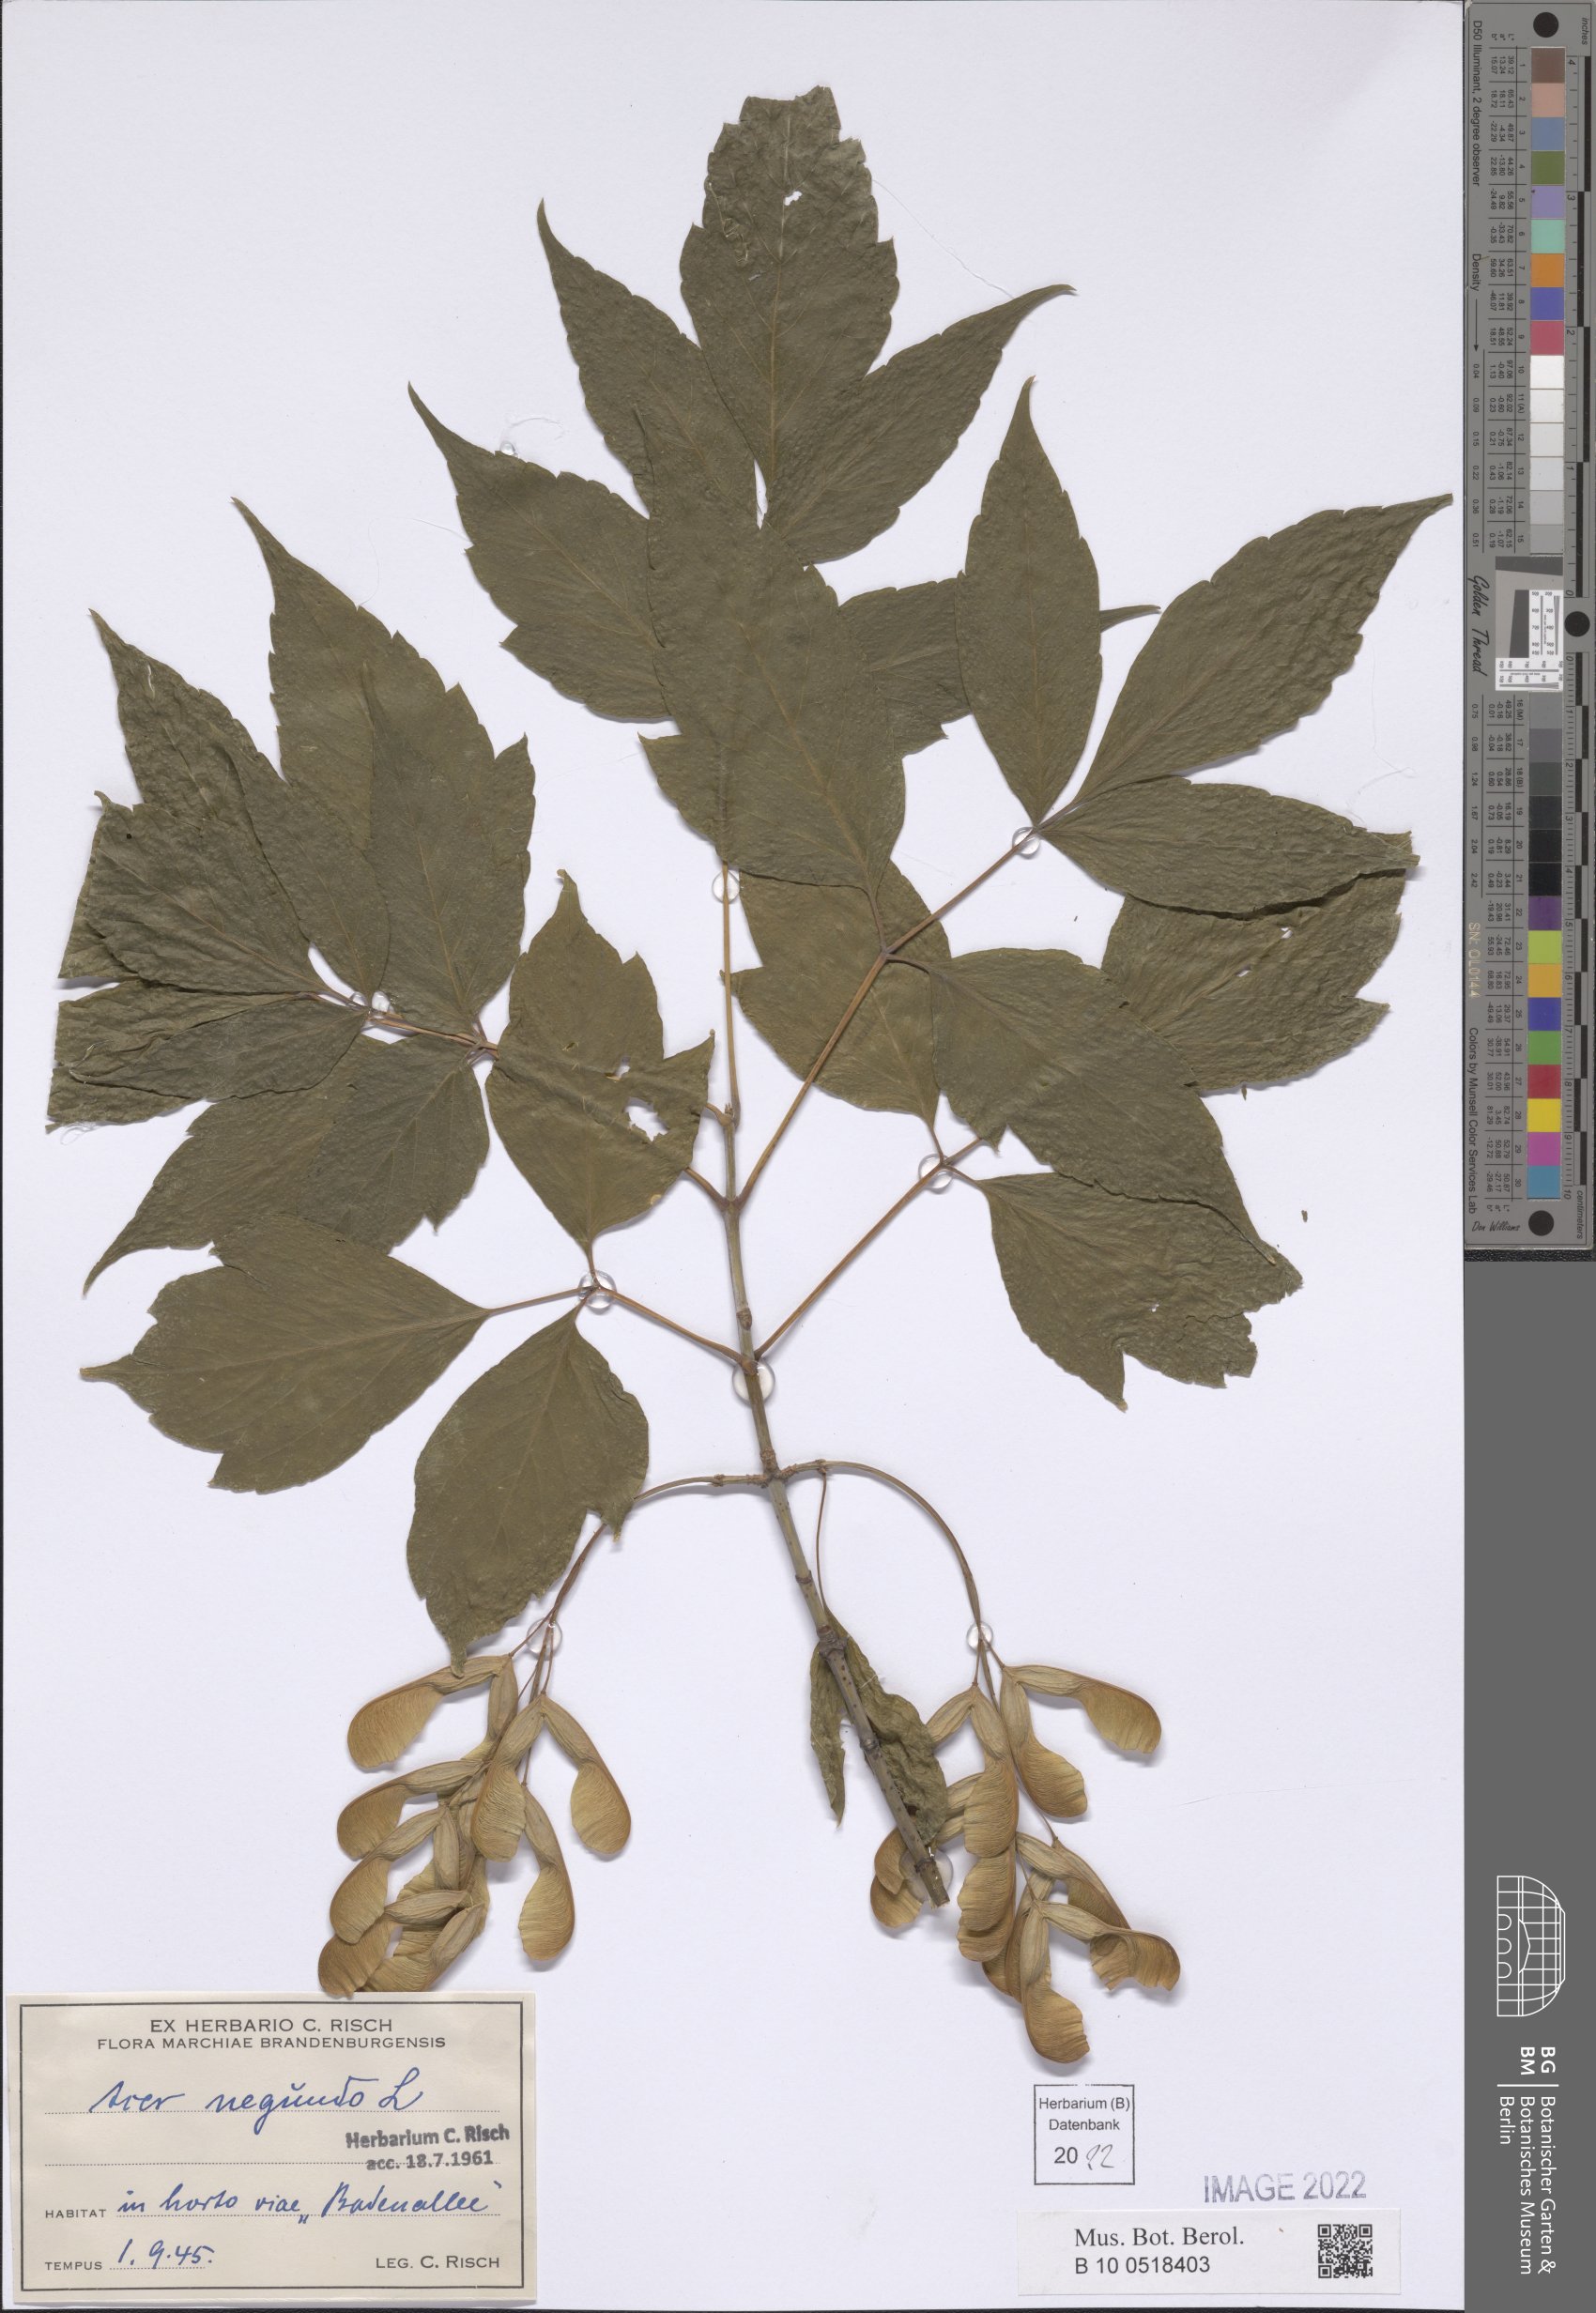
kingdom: Plantae
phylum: Tracheophyta
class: Magnoliopsida
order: Sapindales
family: Sapindaceae
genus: Acer
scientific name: Acer negundo
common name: Ashleaf maple
